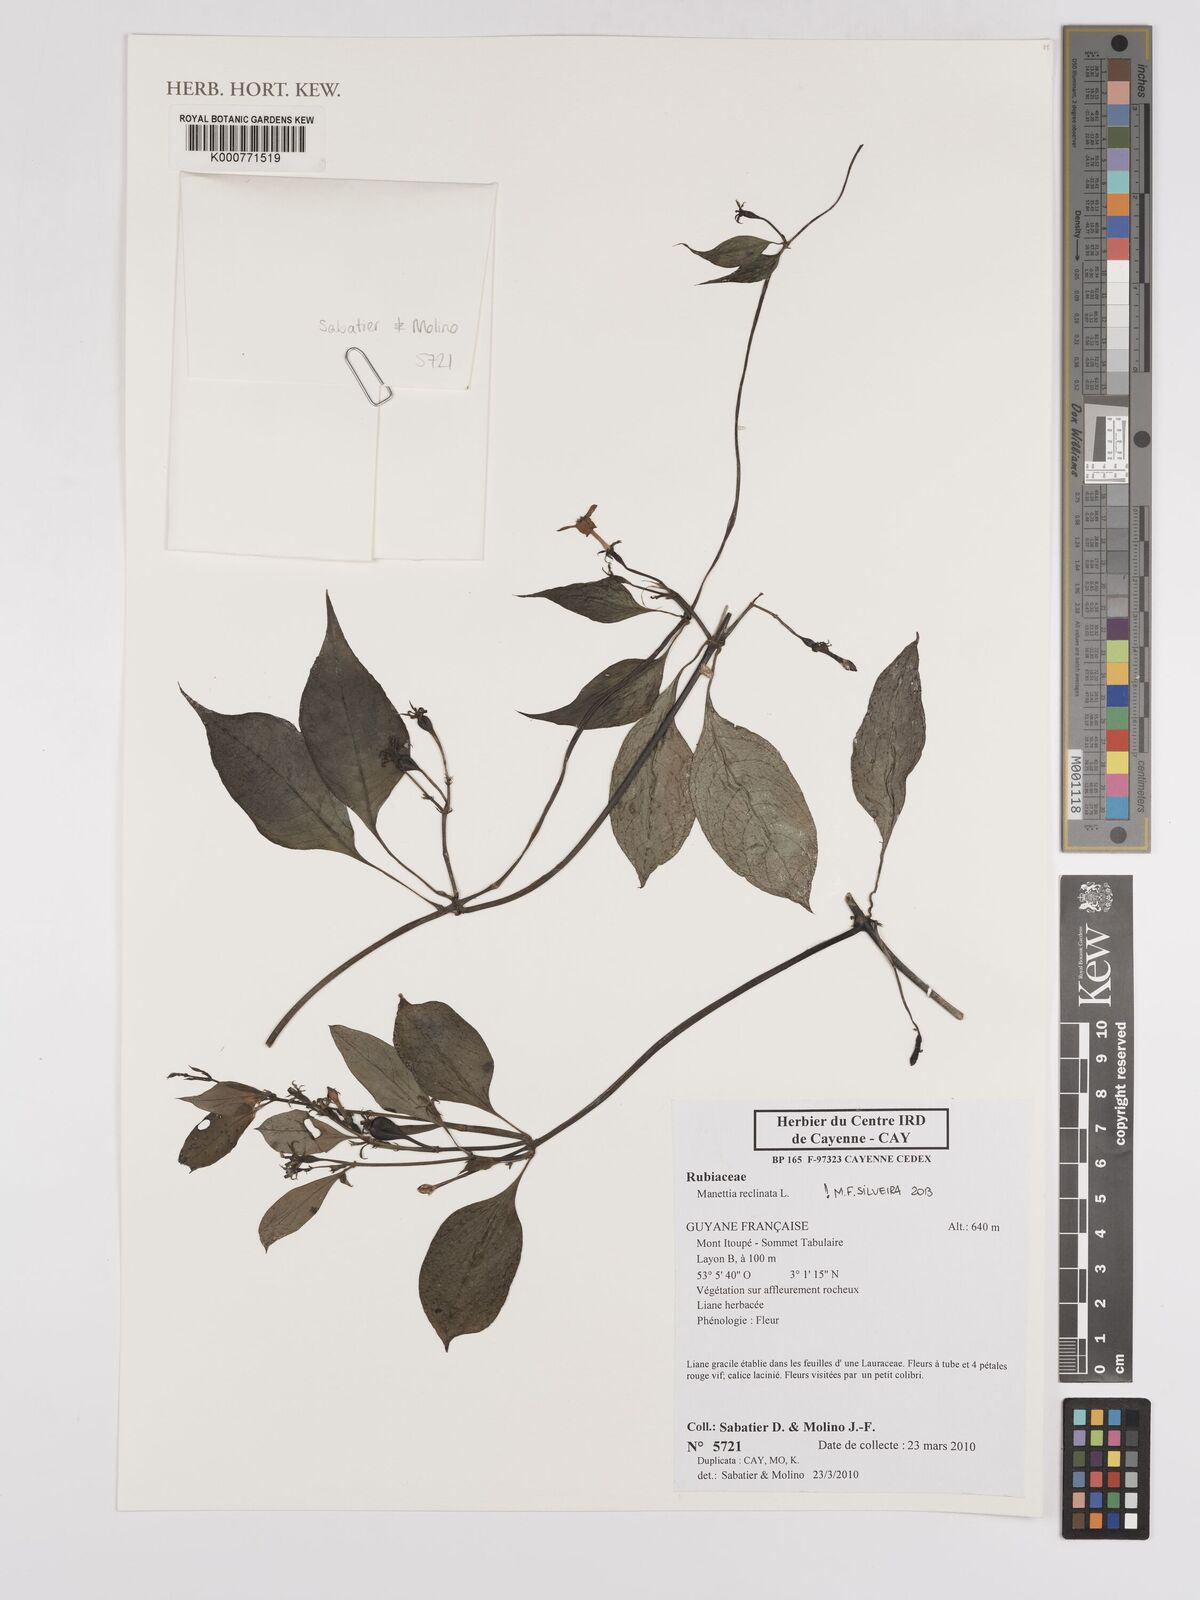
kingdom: Plantae
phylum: Tracheophyta
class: Magnoliopsida
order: Gentianales
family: Rubiaceae
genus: Manettia
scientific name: Manettia reclinata
